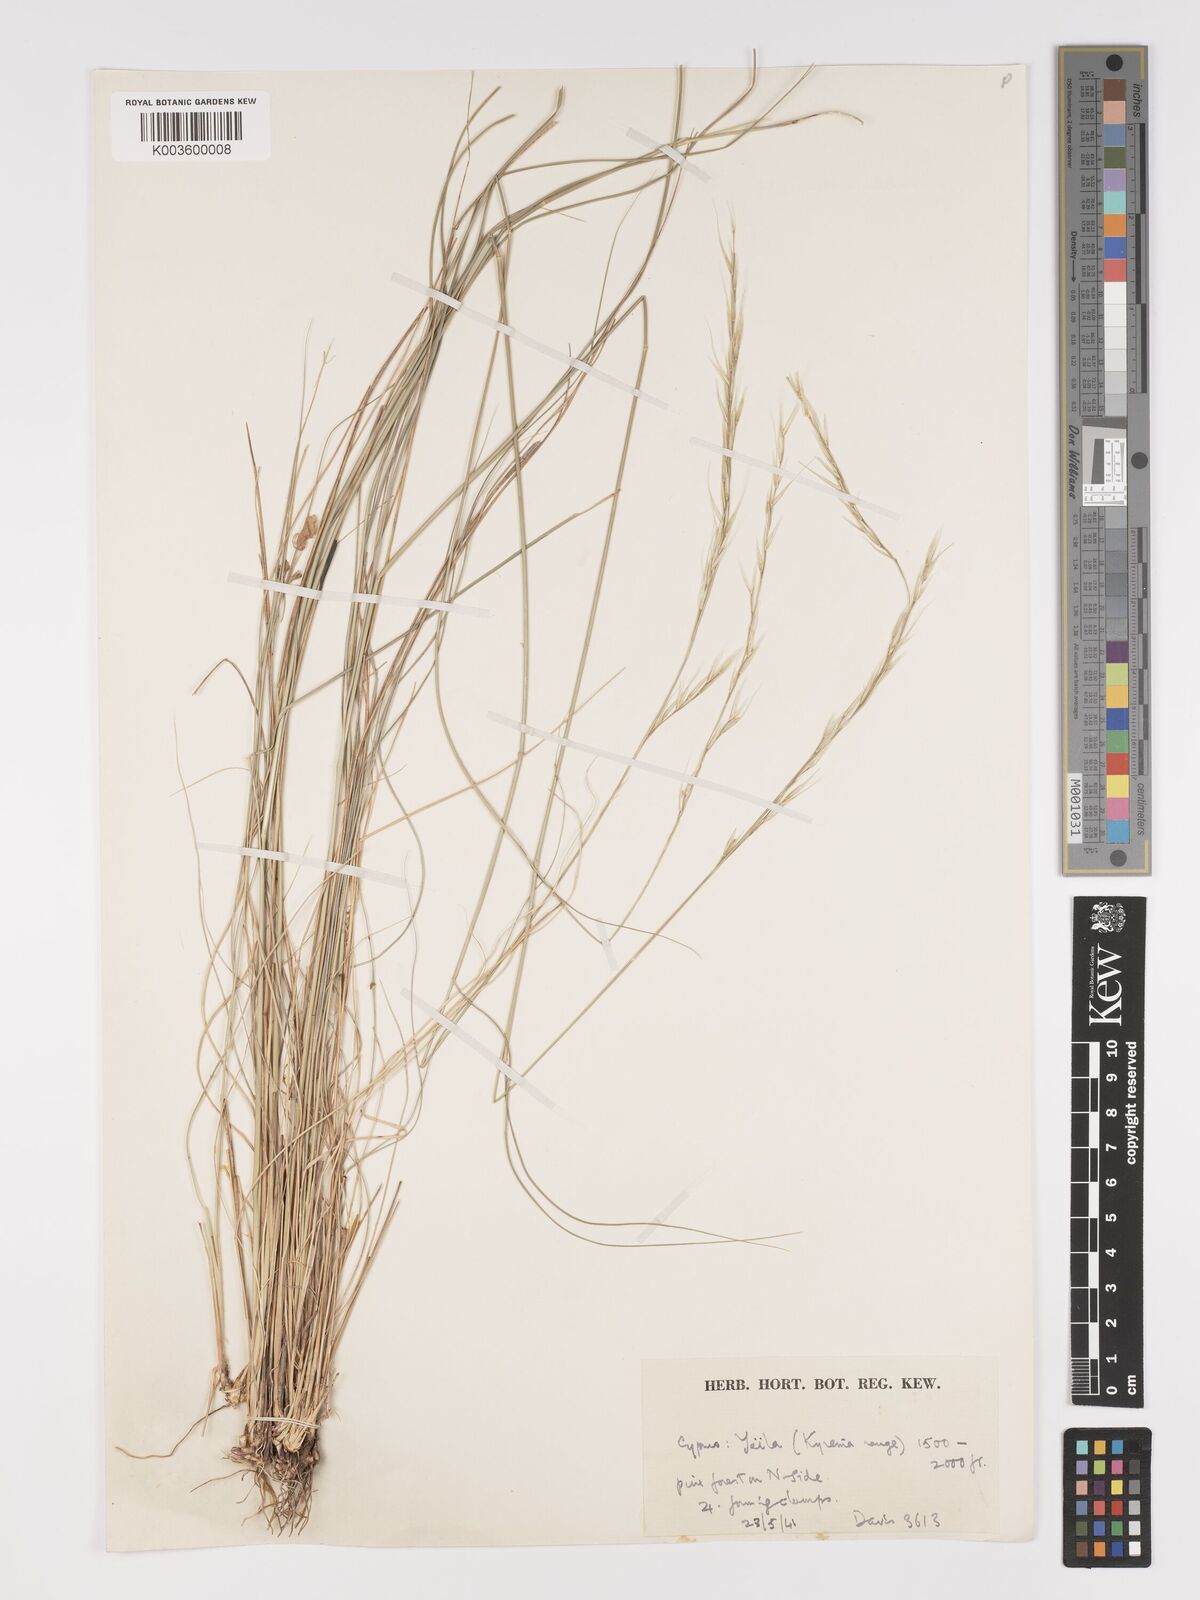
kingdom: Plantae
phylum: Tracheophyta
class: Liliopsida
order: Poales
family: Poaceae
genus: Achnatherum
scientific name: Achnatherum bromoides
